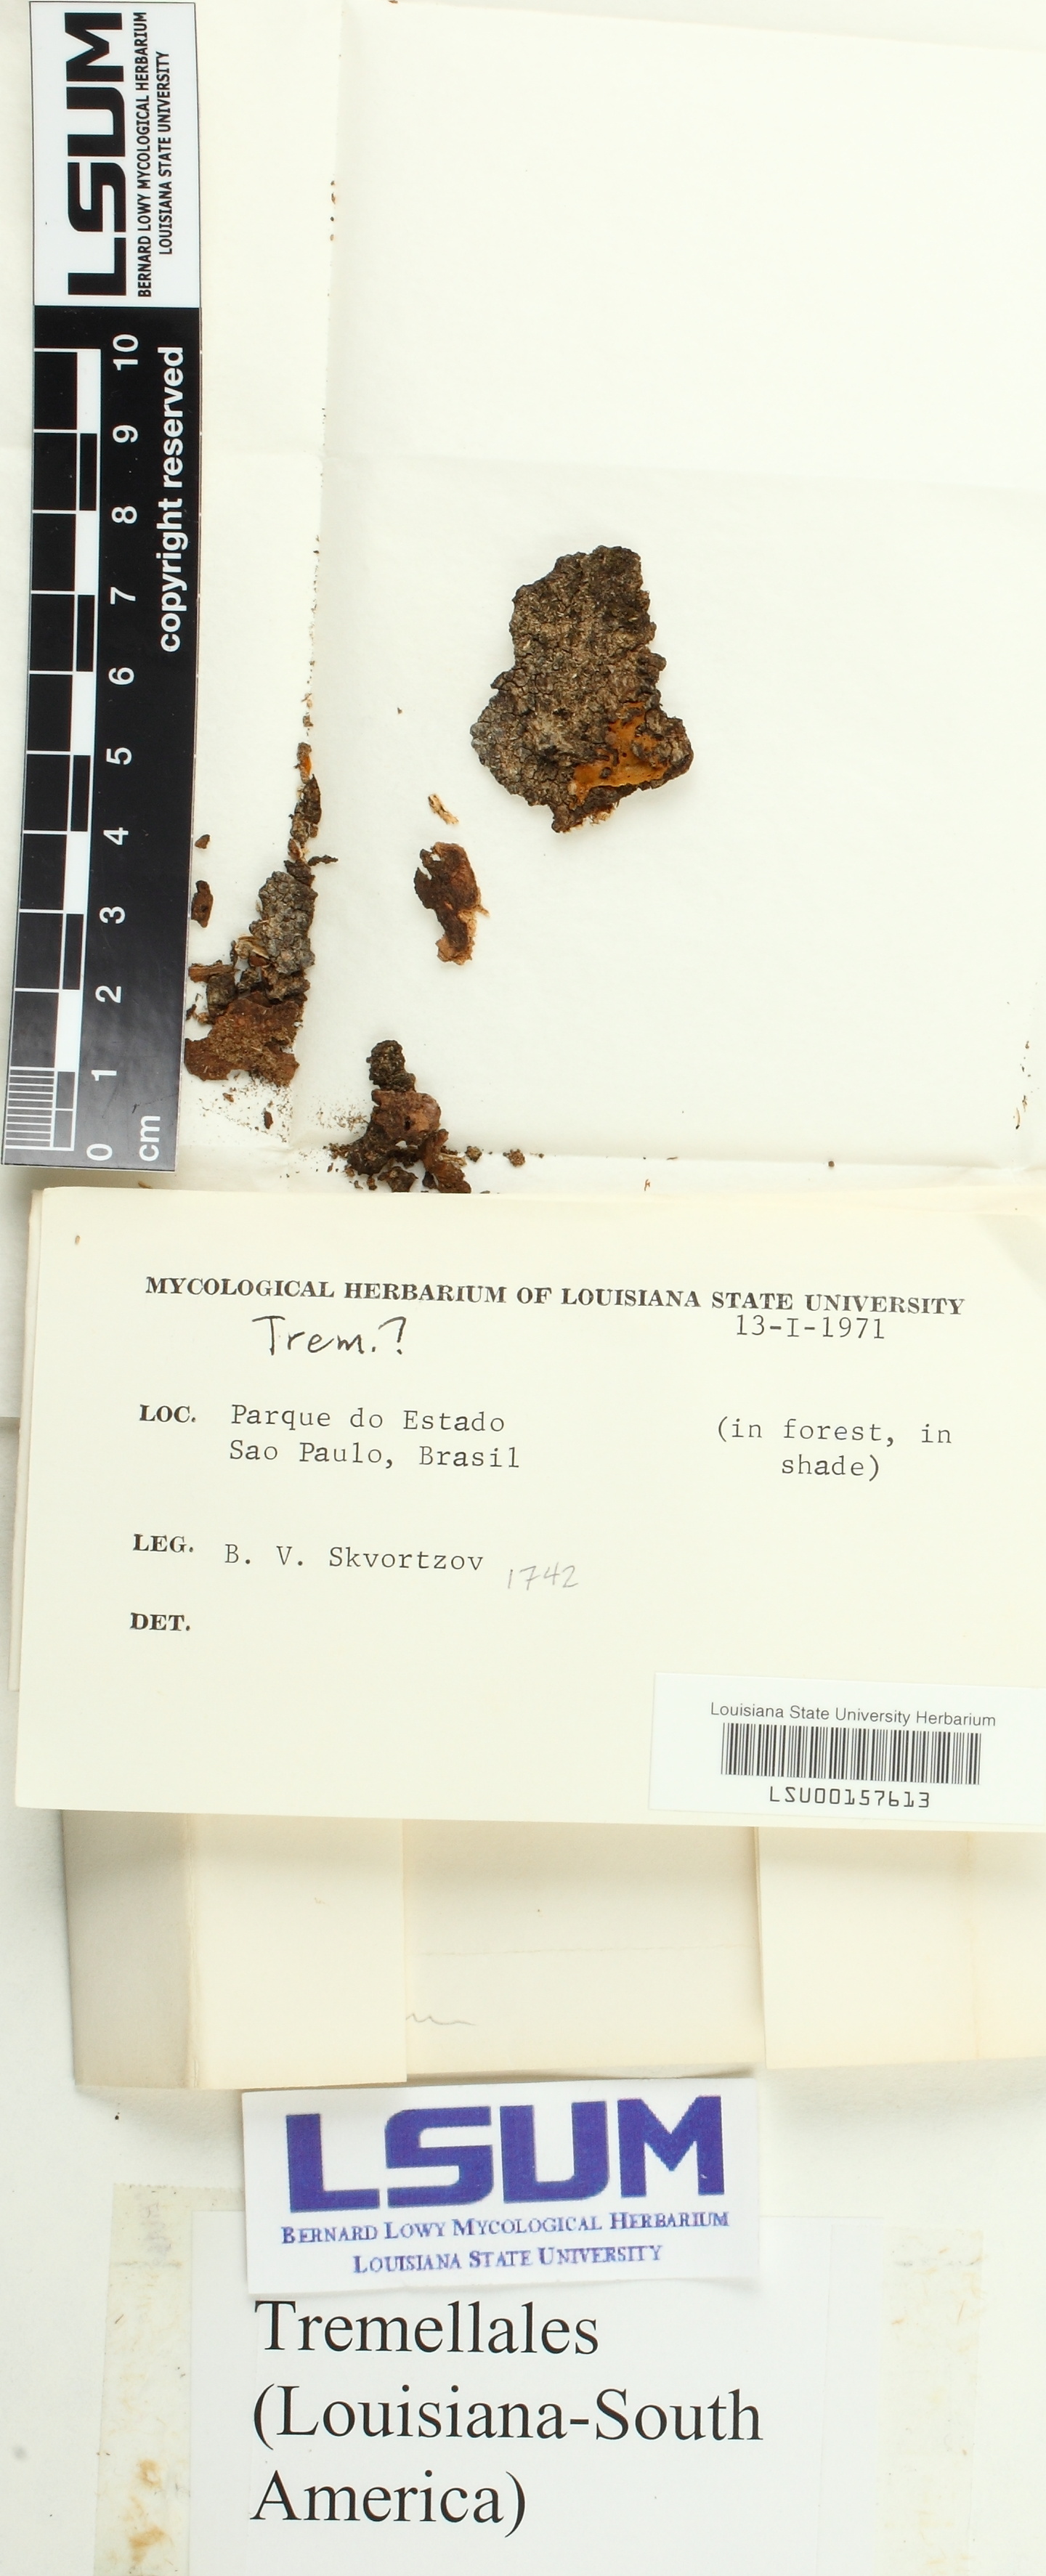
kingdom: Fungi
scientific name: Fungi
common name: Fungi
